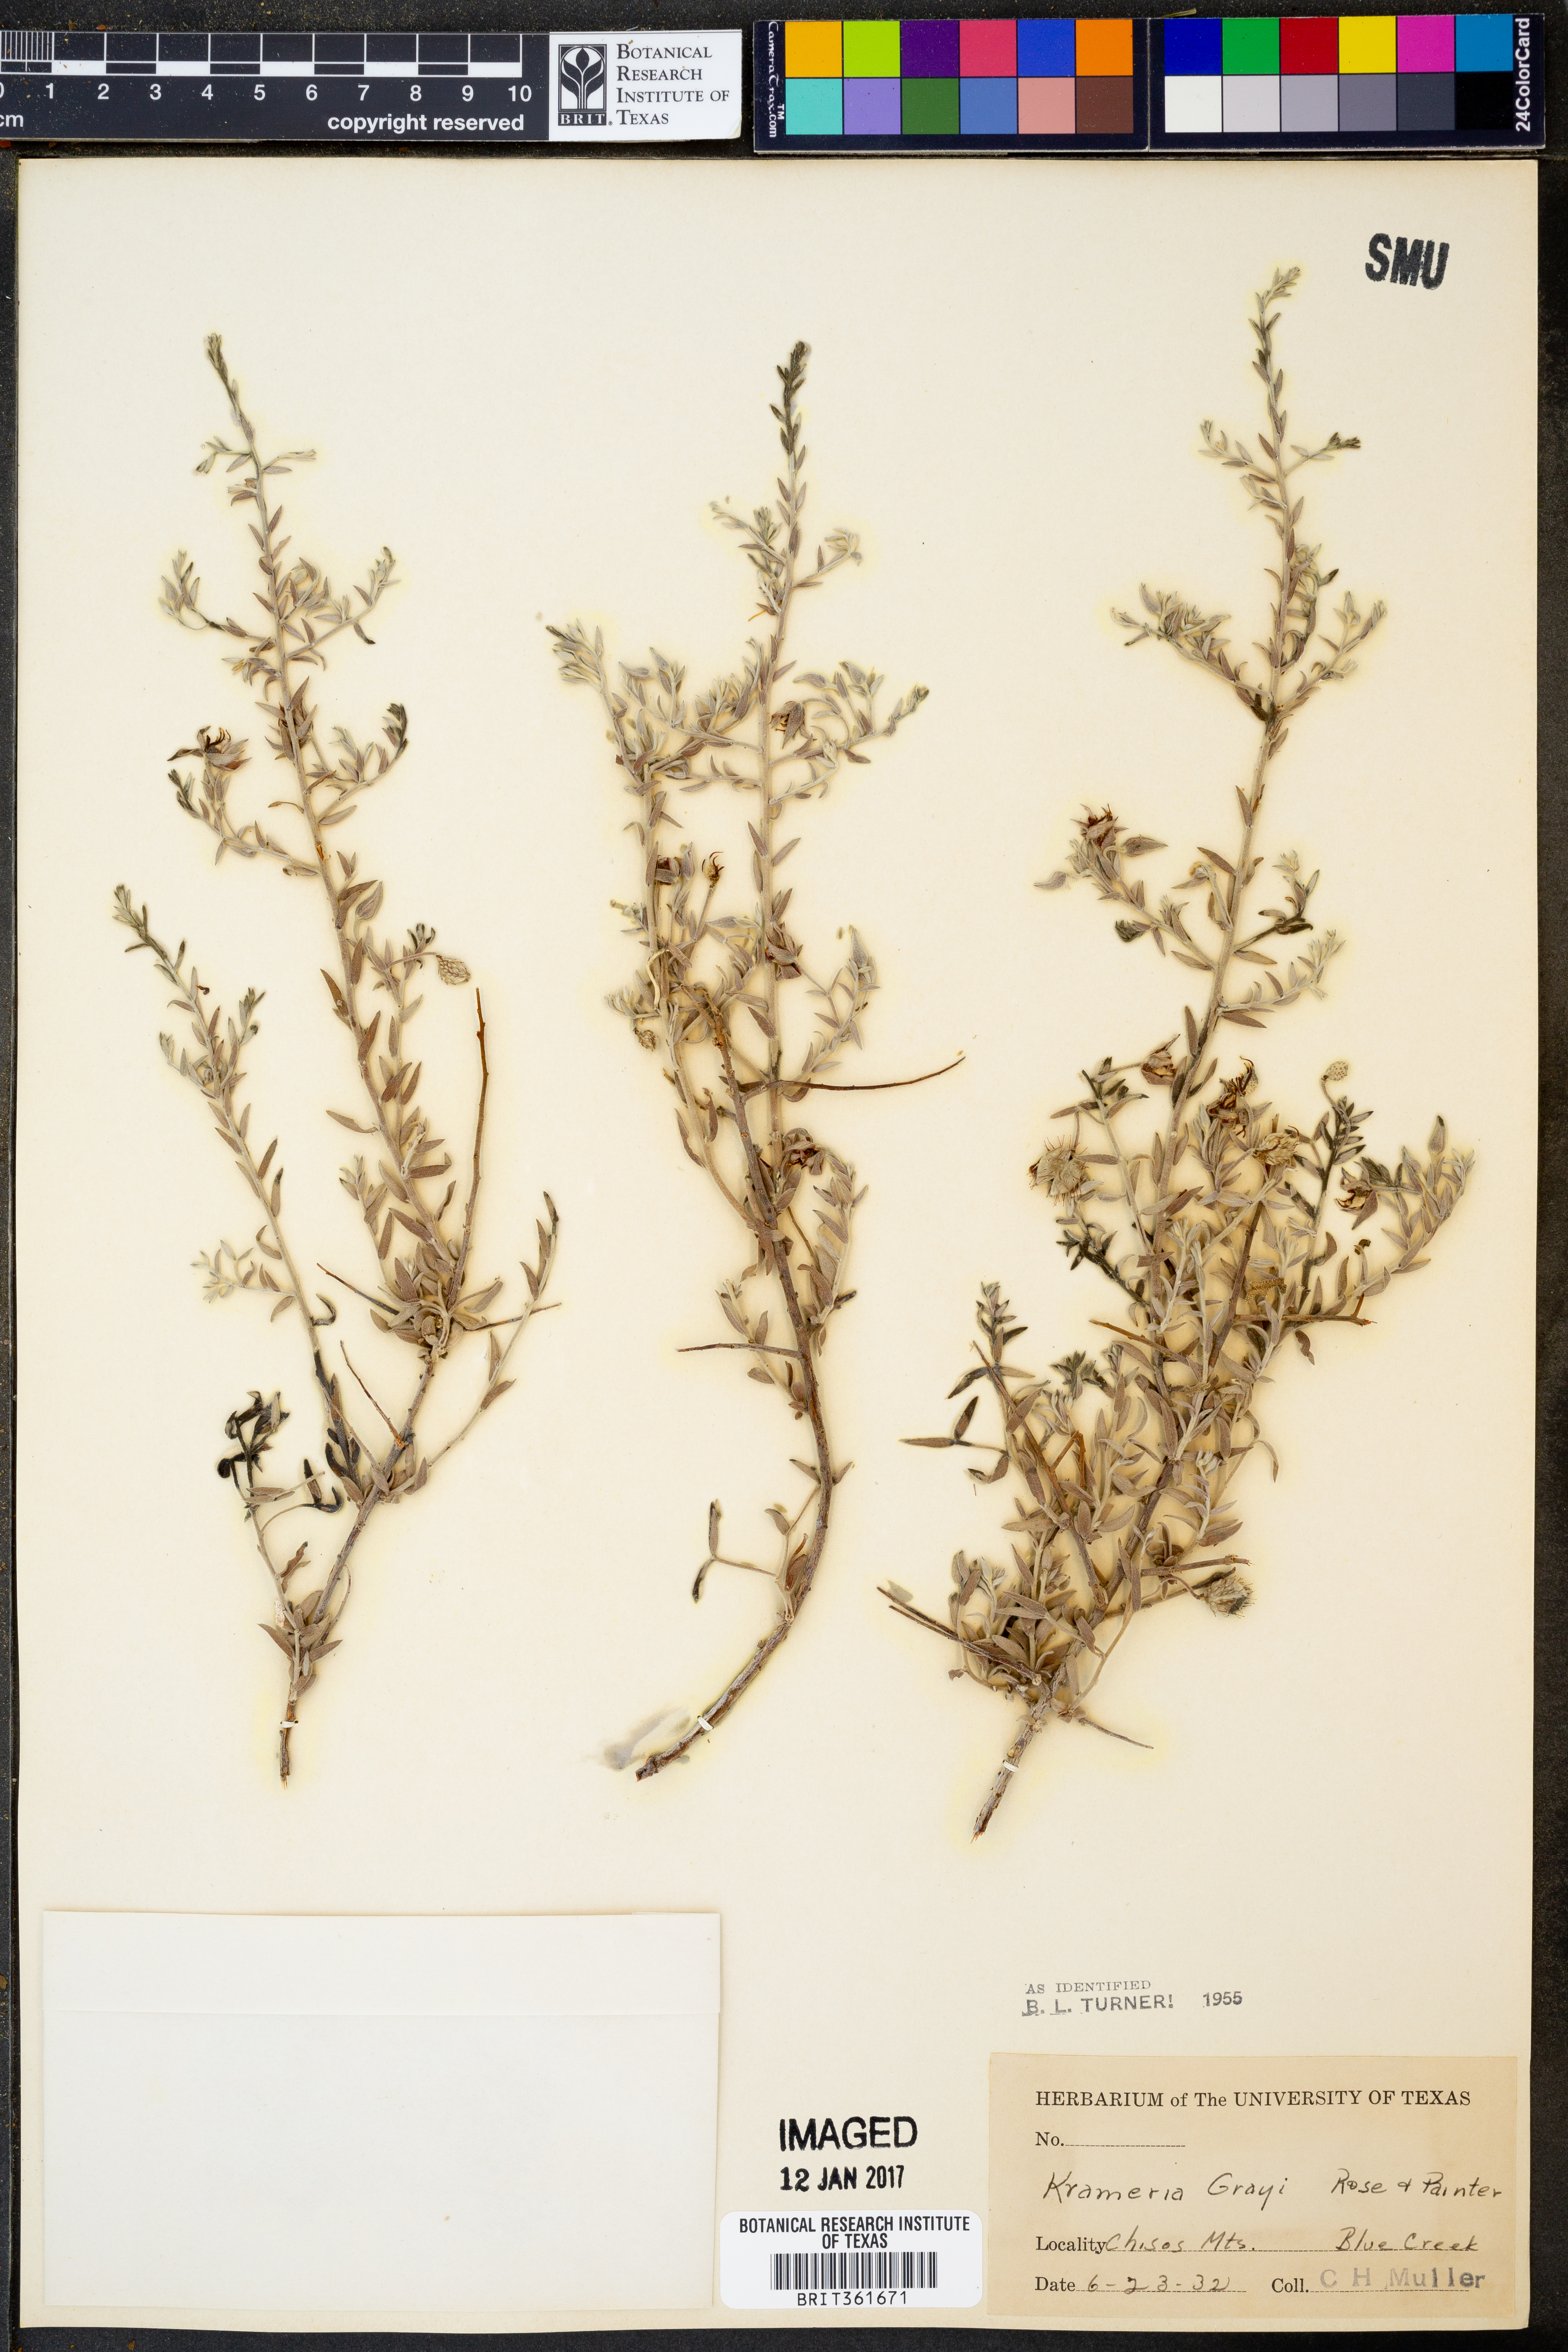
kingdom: Plantae
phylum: Tracheophyta
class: Magnoliopsida
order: Zygophyllales
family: Krameriaceae
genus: Krameria
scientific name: Krameria bicolor
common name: White ratany
